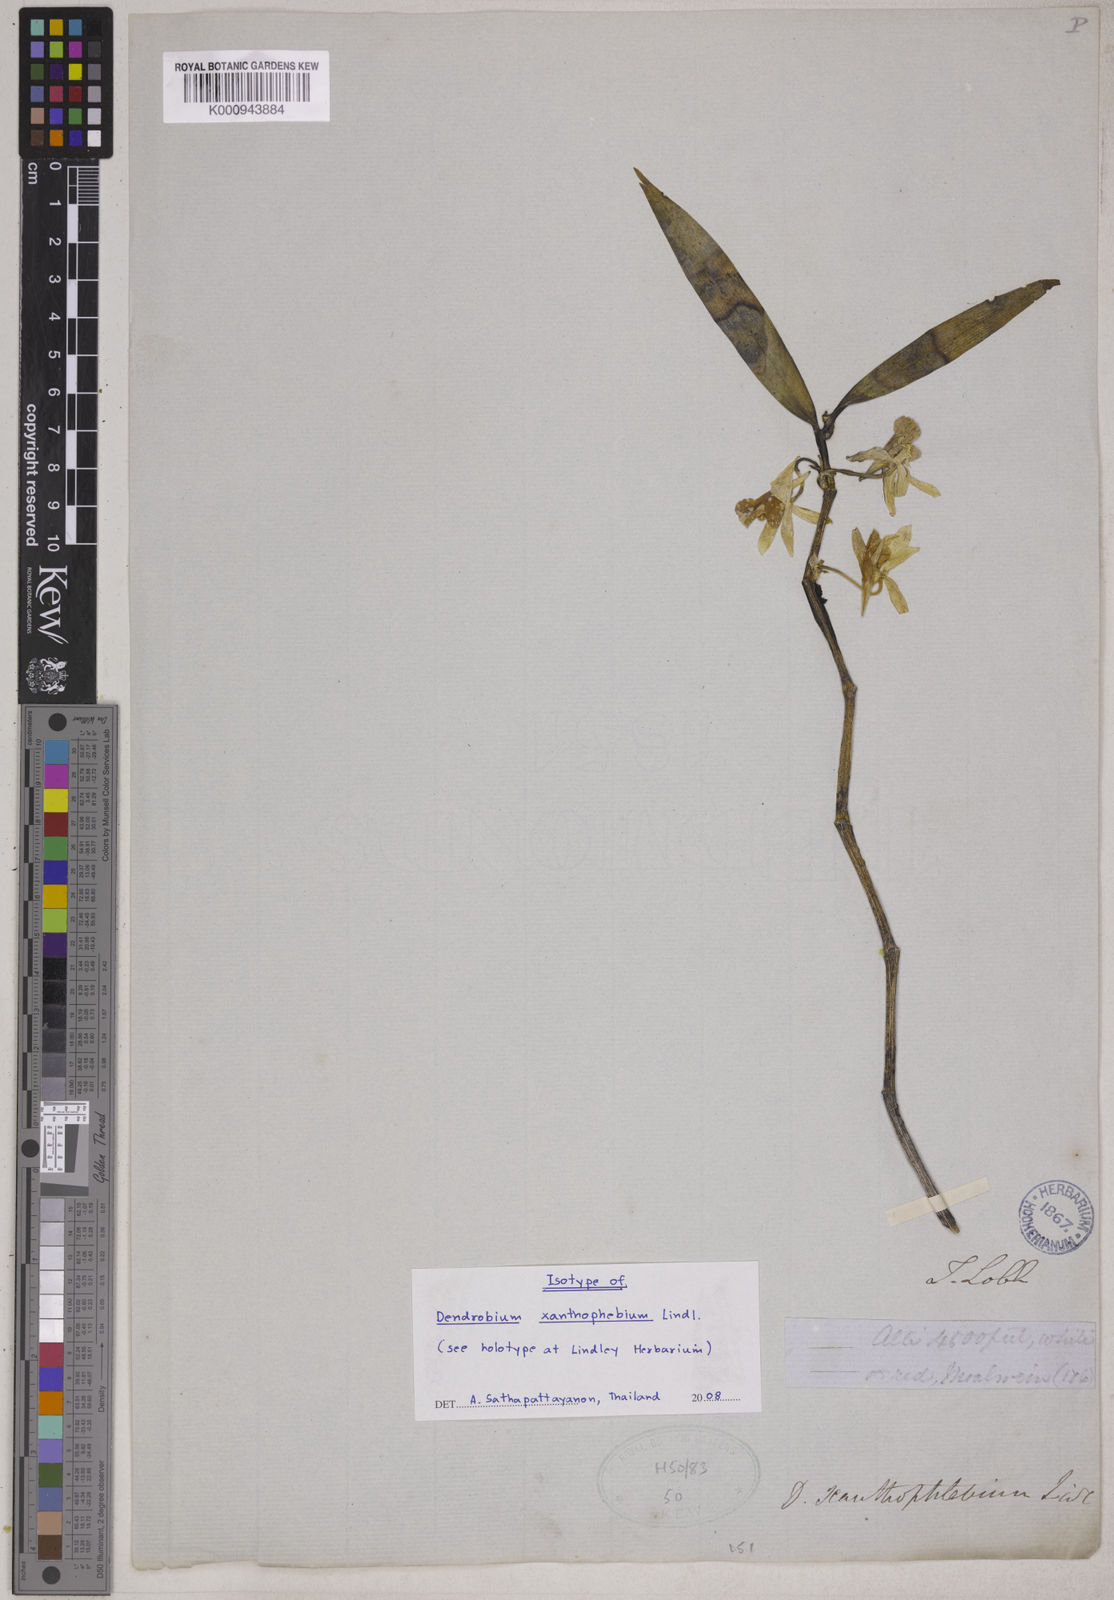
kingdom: Plantae
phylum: Tracheophyta
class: Liliopsida
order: Asparagales
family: Orchidaceae
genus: Dendrobium
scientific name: Dendrobium xanthophlebium
